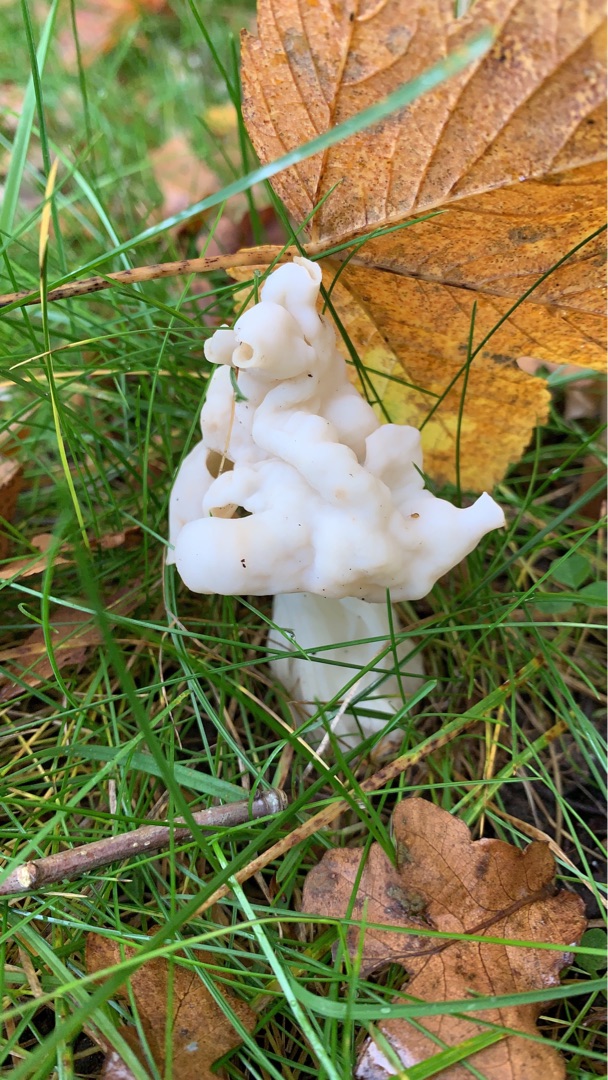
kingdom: Fungi
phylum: Ascomycota
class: Pezizomycetes
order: Pezizales
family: Helvellaceae
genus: Helvella
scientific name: Helvella crispa
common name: Kruset foldhat
